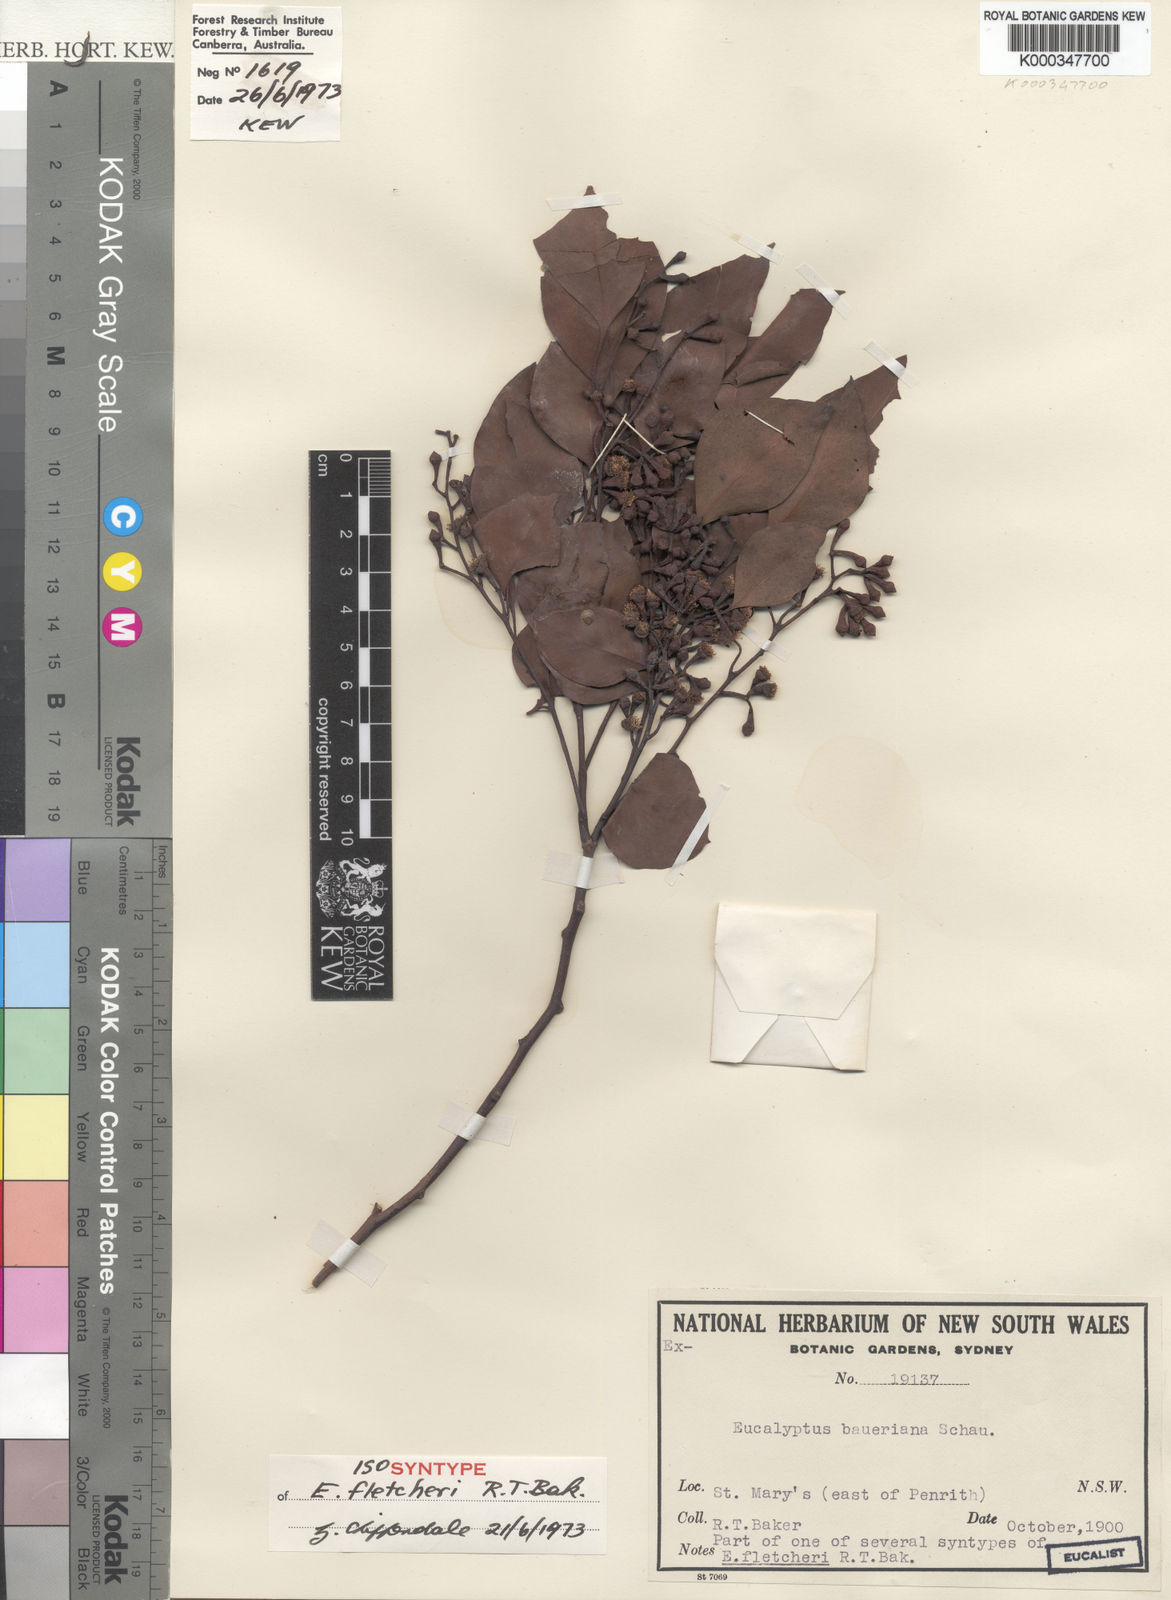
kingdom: Plantae
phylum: Tracheophyta
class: Magnoliopsida
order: Myrtales
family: Myrtaceae
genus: Eucalyptus
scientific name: Eucalyptus baueriana
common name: Round-leaf-box
